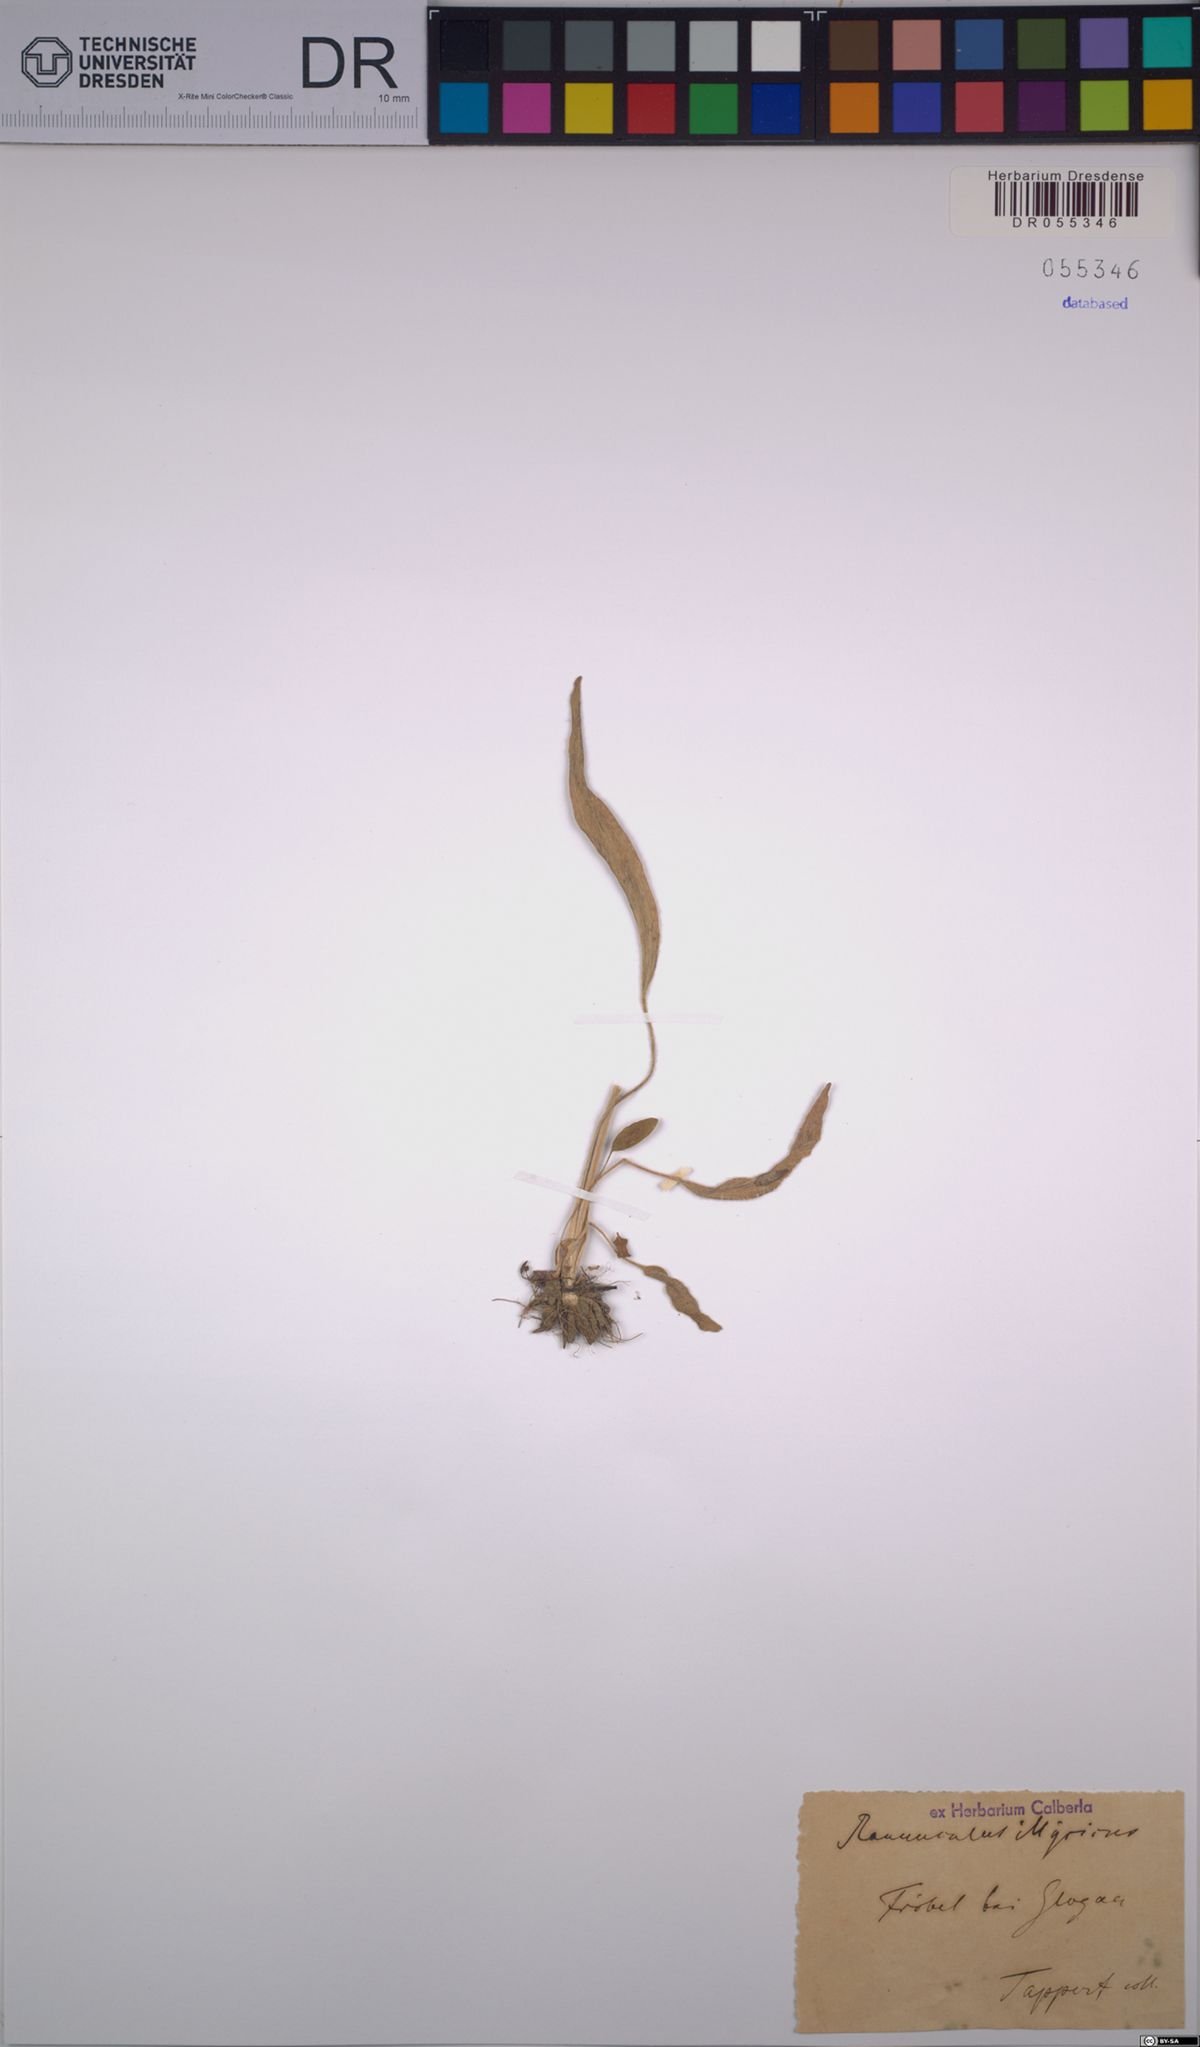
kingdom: Plantae
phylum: Tracheophyta
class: Magnoliopsida
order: Ranunculales
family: Ranunculaceae
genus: Ranunculus
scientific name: Ranunculus illyricus
